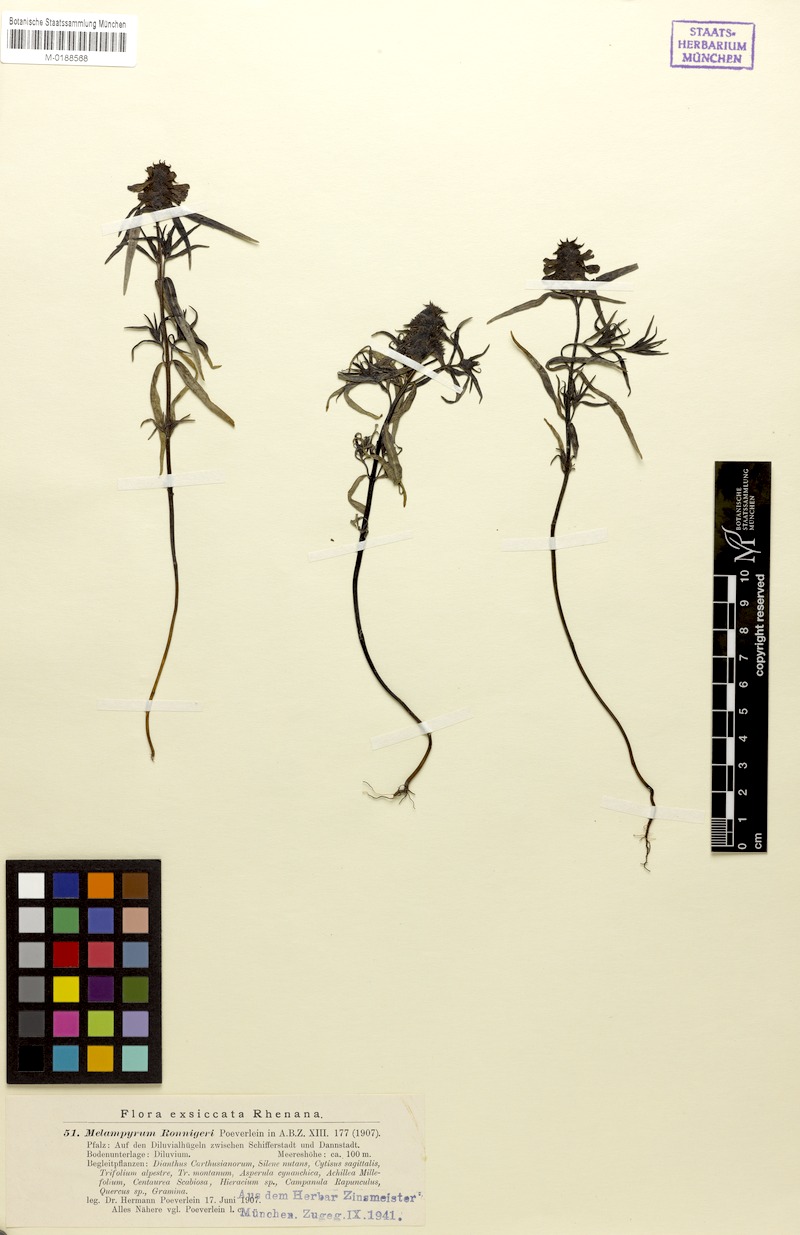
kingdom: Plantae
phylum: Tracheophyta
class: Magnoliopsida
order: Lamiales
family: Orobanchaceae
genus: Melampyrum
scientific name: Melampyrum cristatum
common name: Crested cow-wheat
